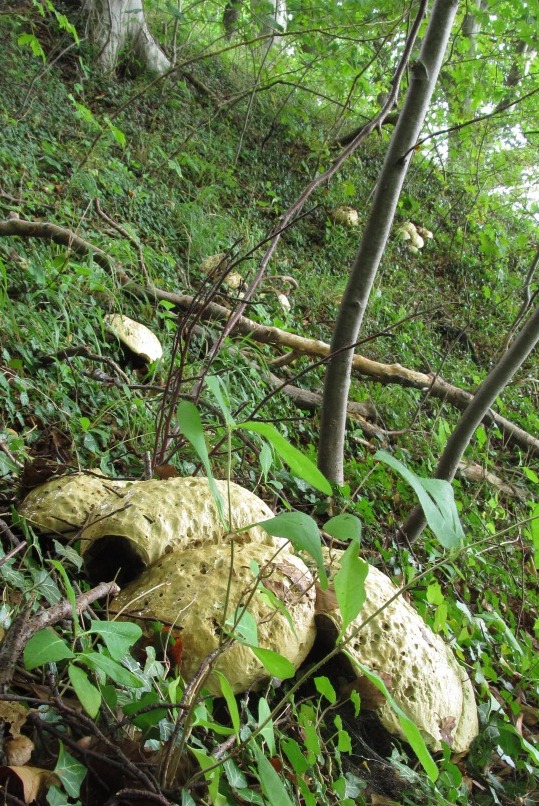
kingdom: Fungi
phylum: Basidiomycota
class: Agaricomycetes
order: Boletales
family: Boletaceae
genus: Rubroboletus
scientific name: Rubroboletus satanas
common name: Satans rørhat
